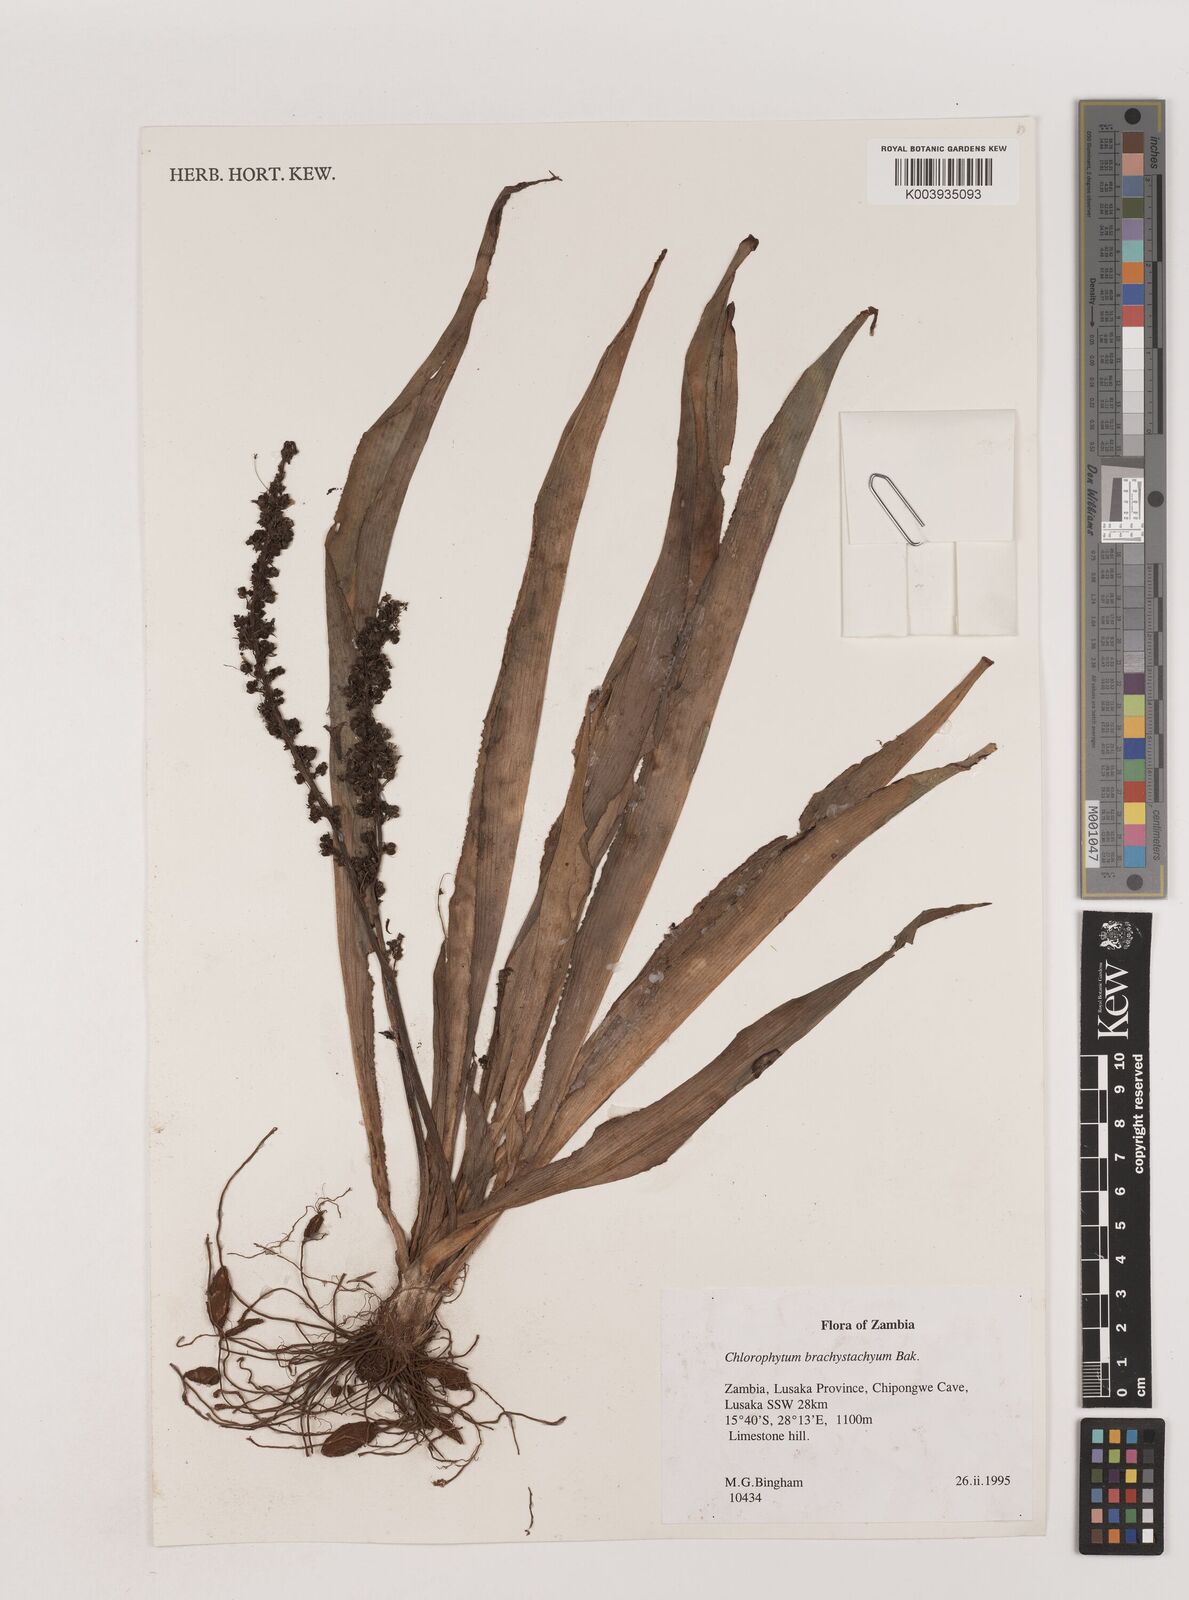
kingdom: Plantae
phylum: Tracheophyta
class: Liliopsida
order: Asparagales
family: Asparagaceae
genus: Chlorophytum
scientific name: Chlorophytum brachystachyum
